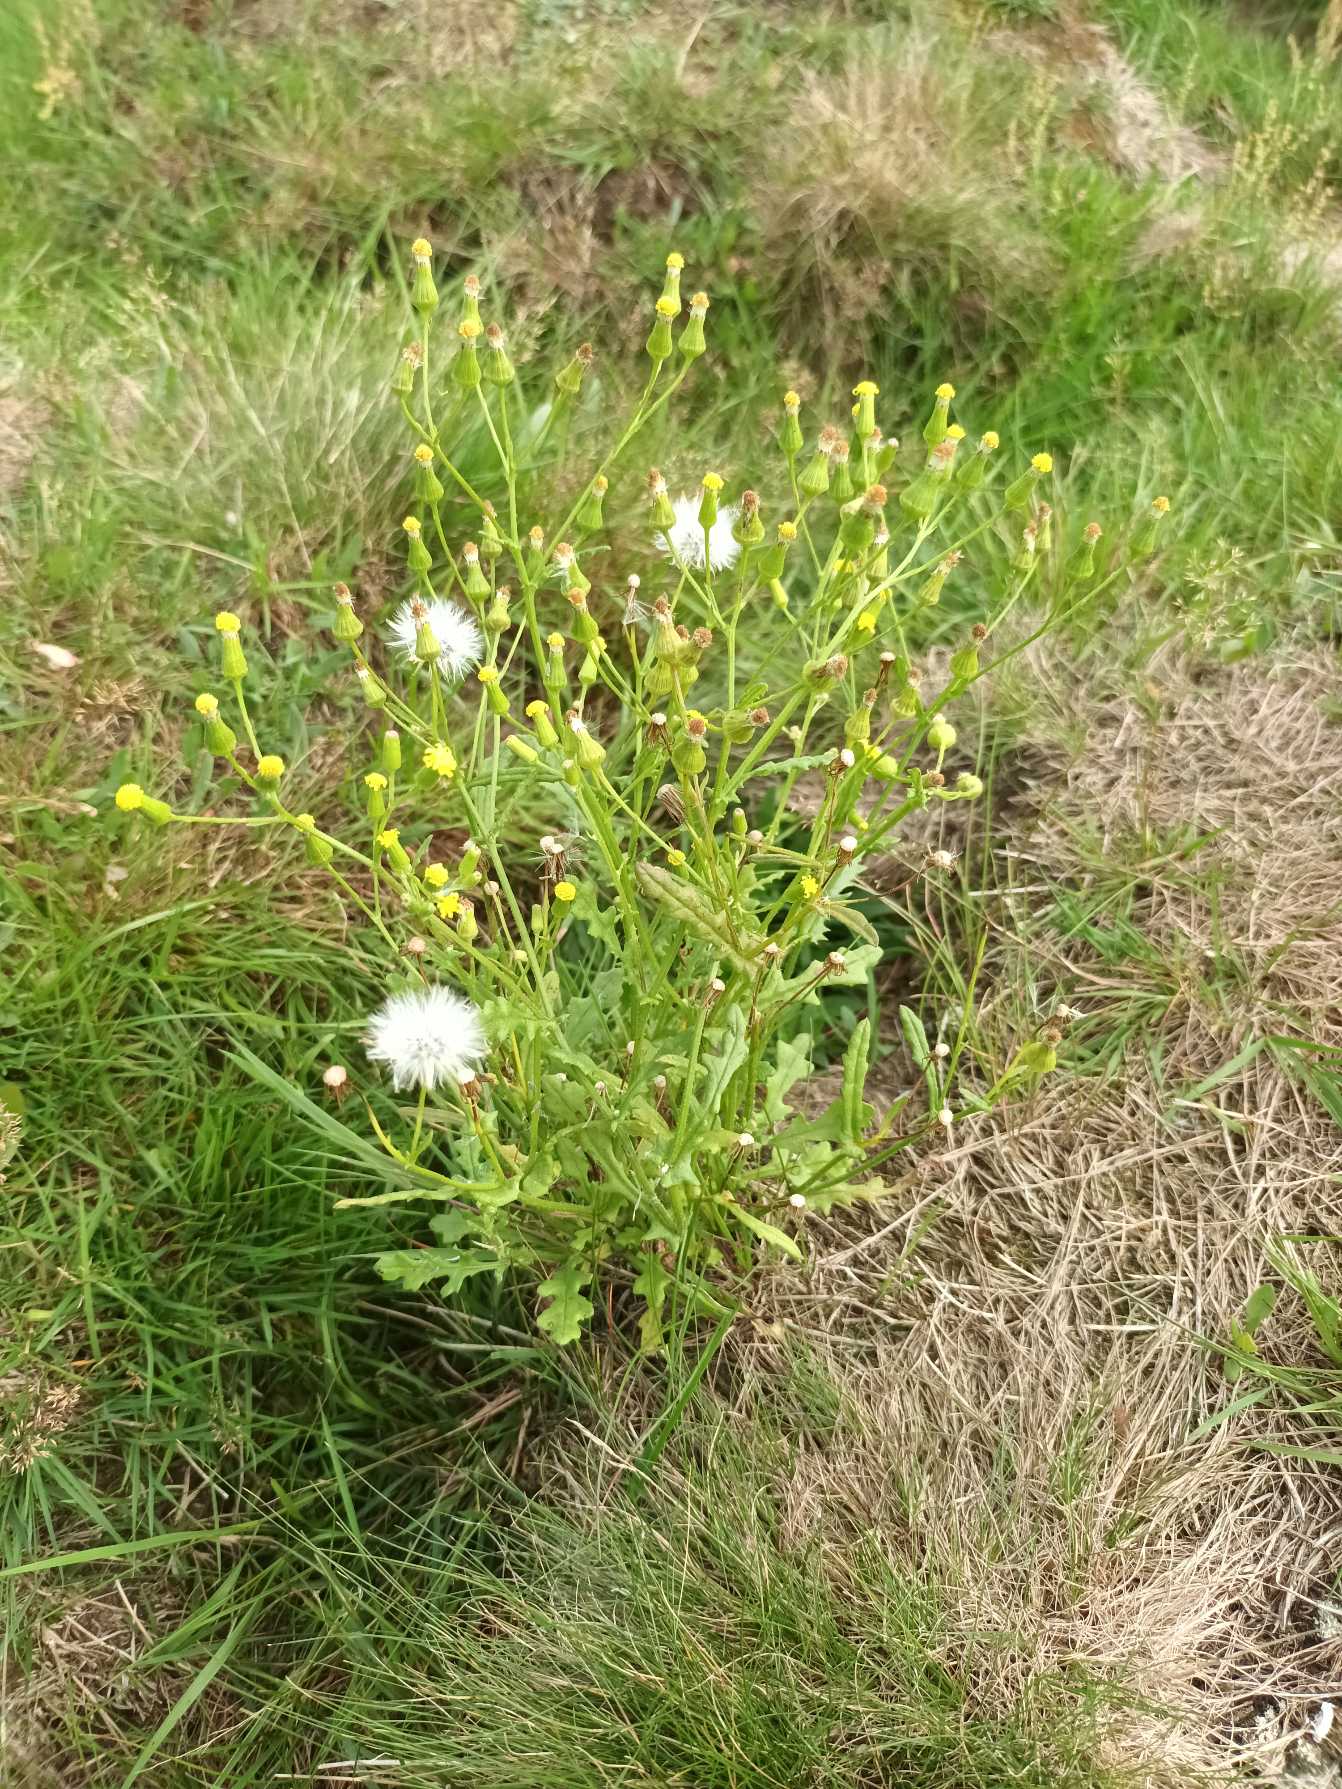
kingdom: Plantae
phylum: Tracheophyta
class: Magnoliopsida
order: Asterales
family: Asteraceae
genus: Senecio
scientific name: Senecio sylvaticus
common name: Skov-brandbæger
